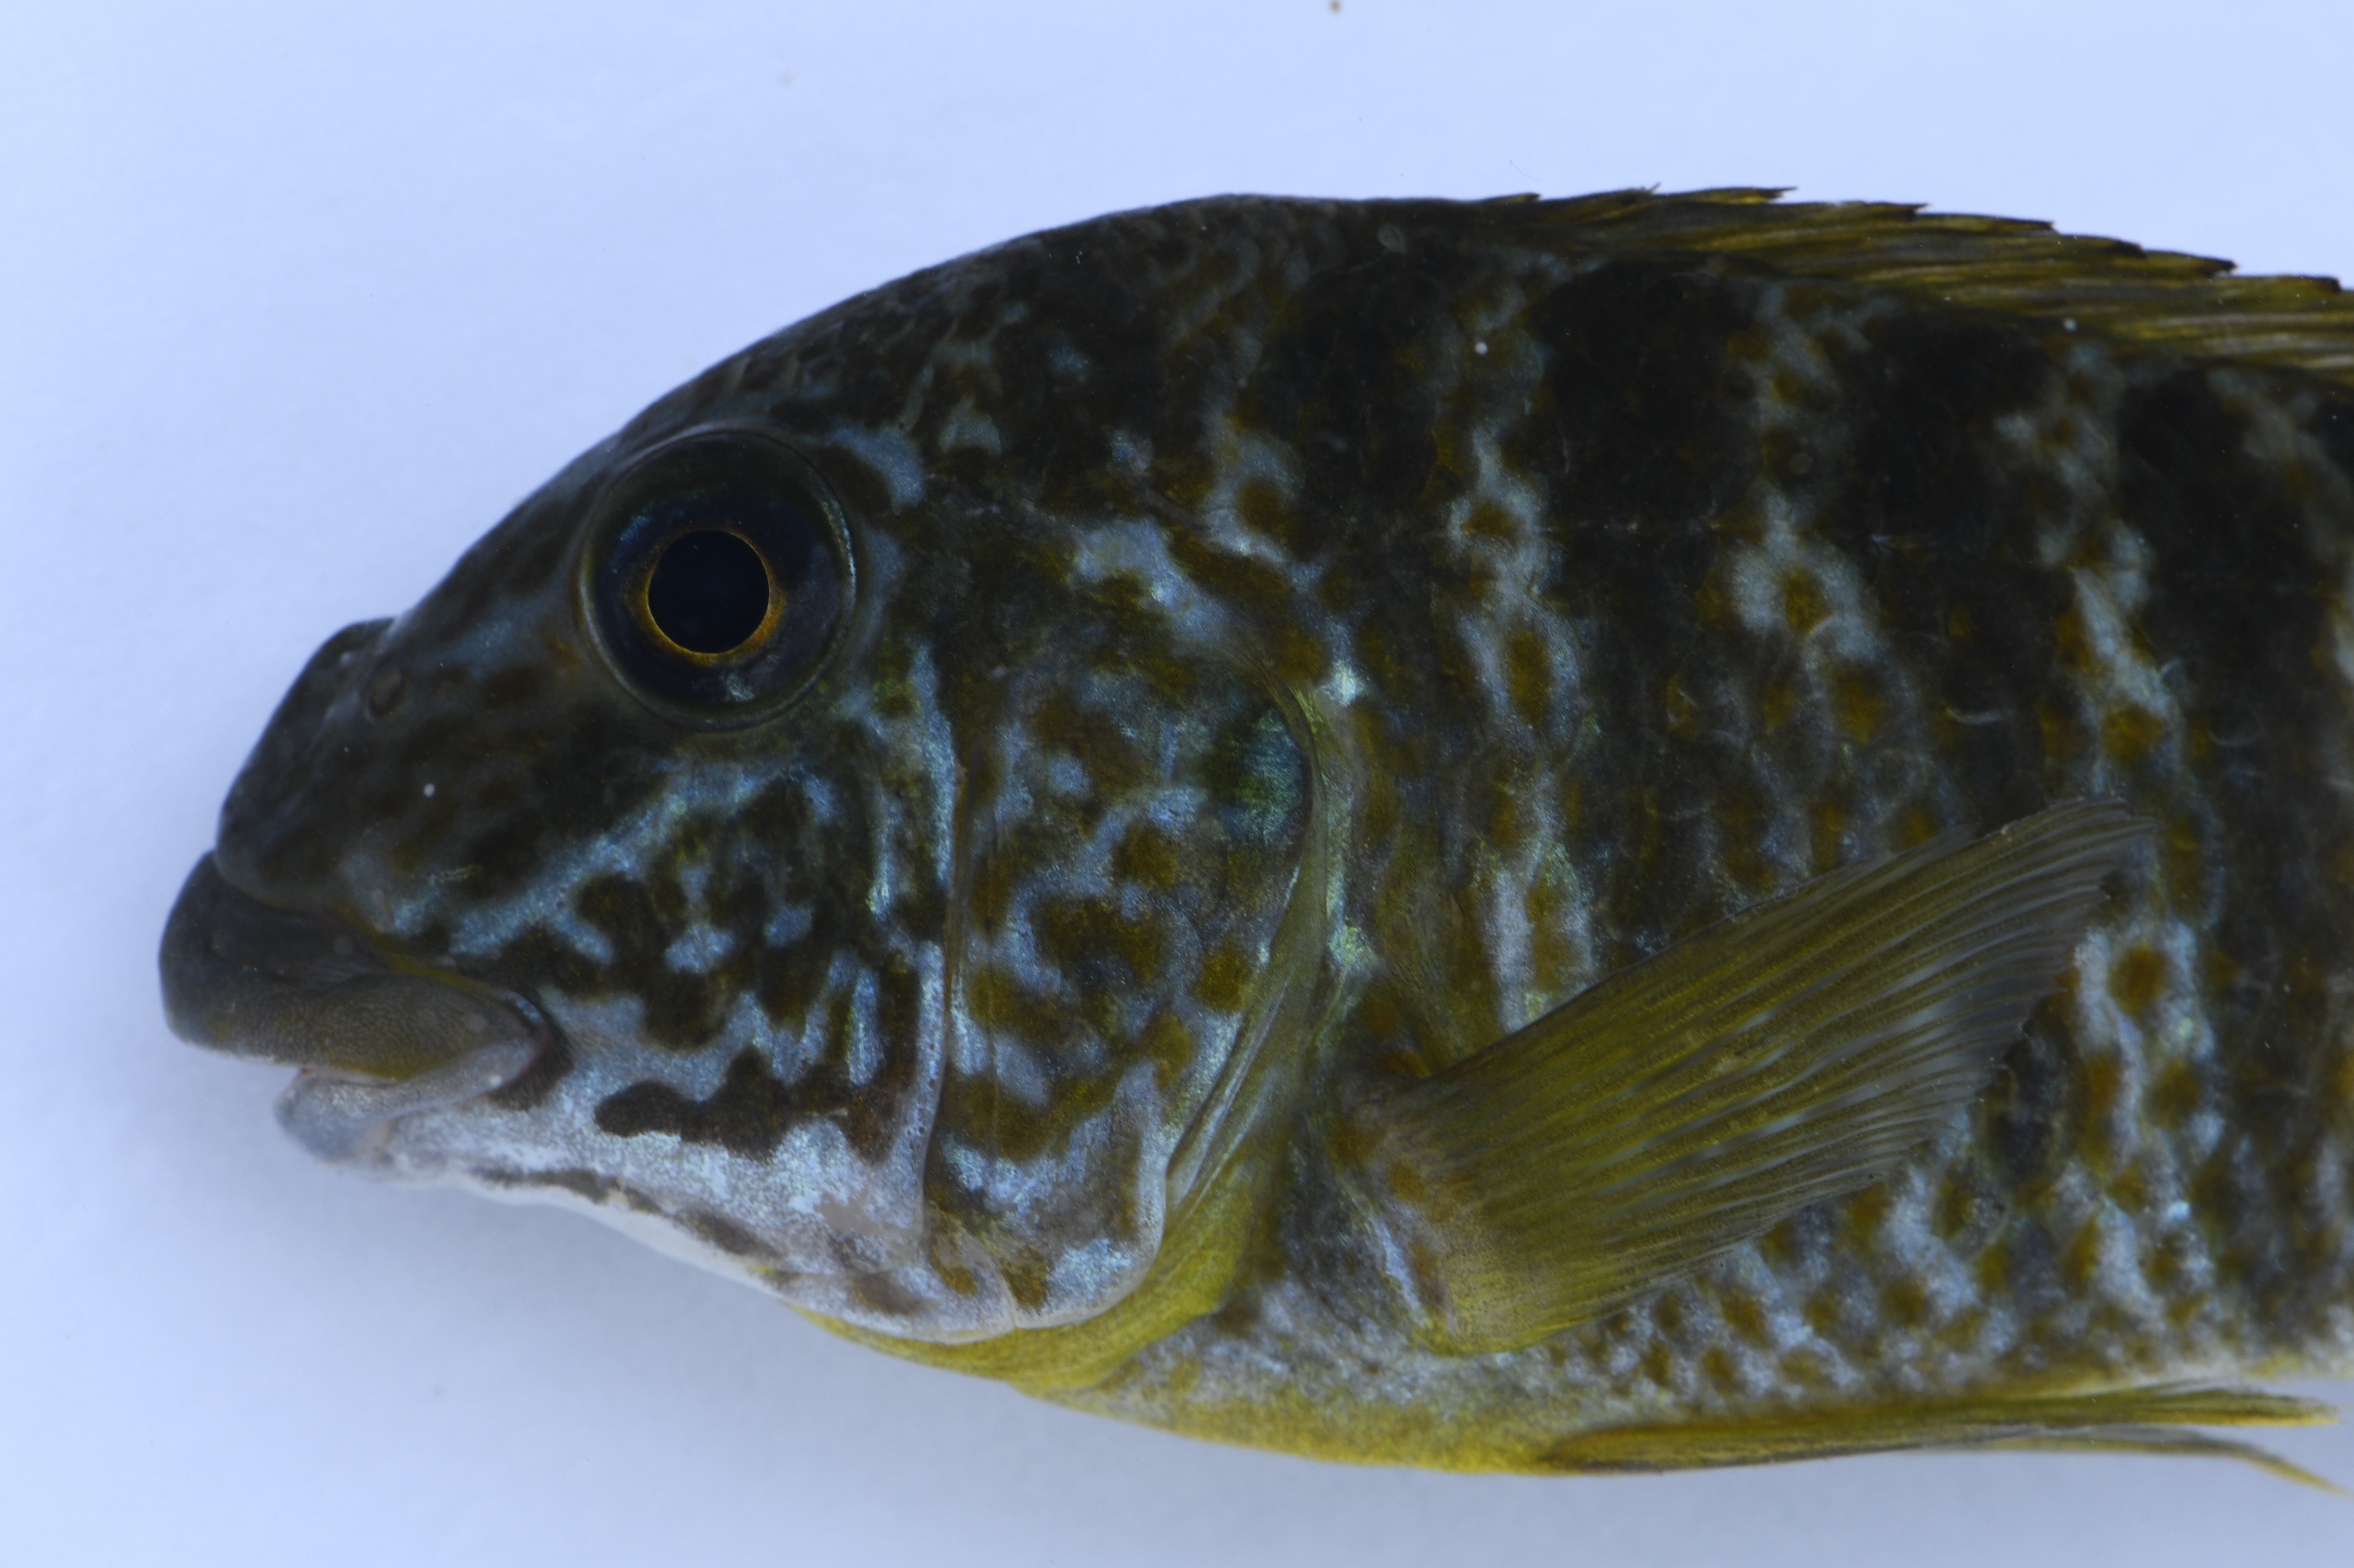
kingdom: Animalia
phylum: Chordata
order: Perciformes
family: Cichlidae
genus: Petrochromis
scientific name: Petrochromis macrognathus
